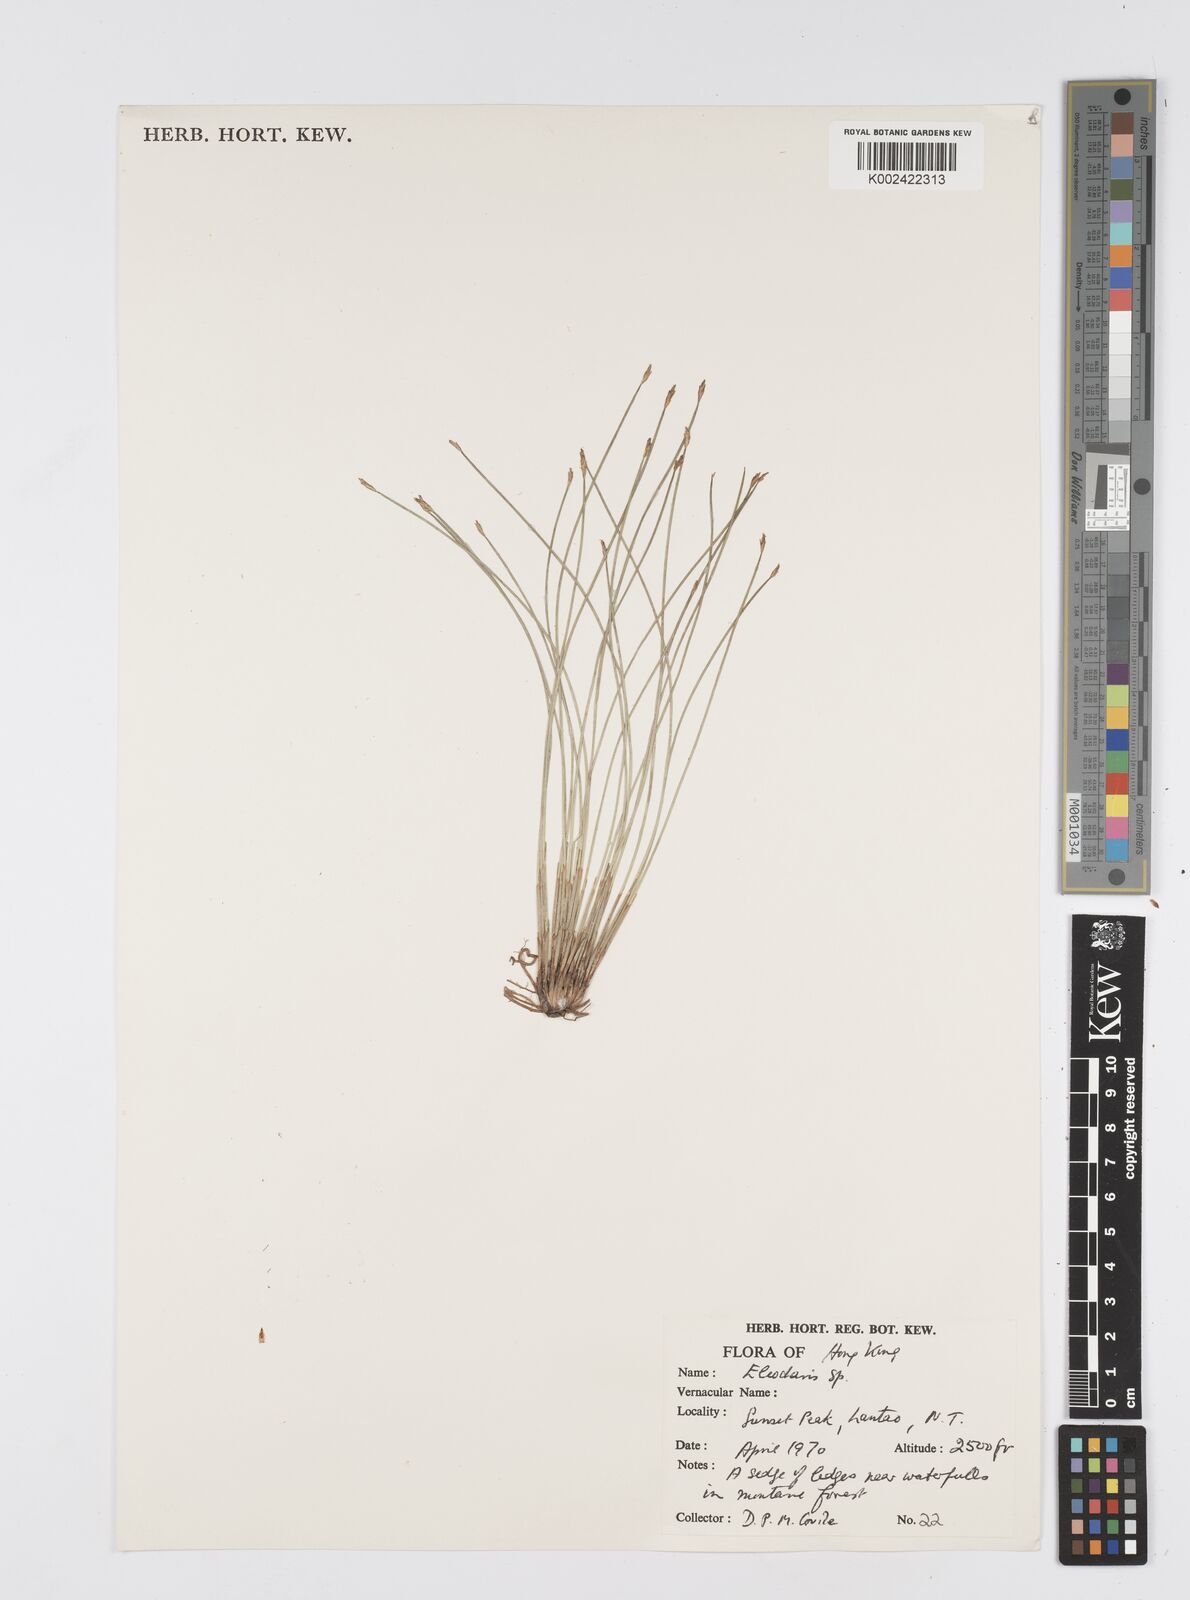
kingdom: Plantae
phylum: Tracheophyta
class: Liliopsida
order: Poales
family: Cyperaceae
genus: Eleocharis
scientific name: Eleocharis
